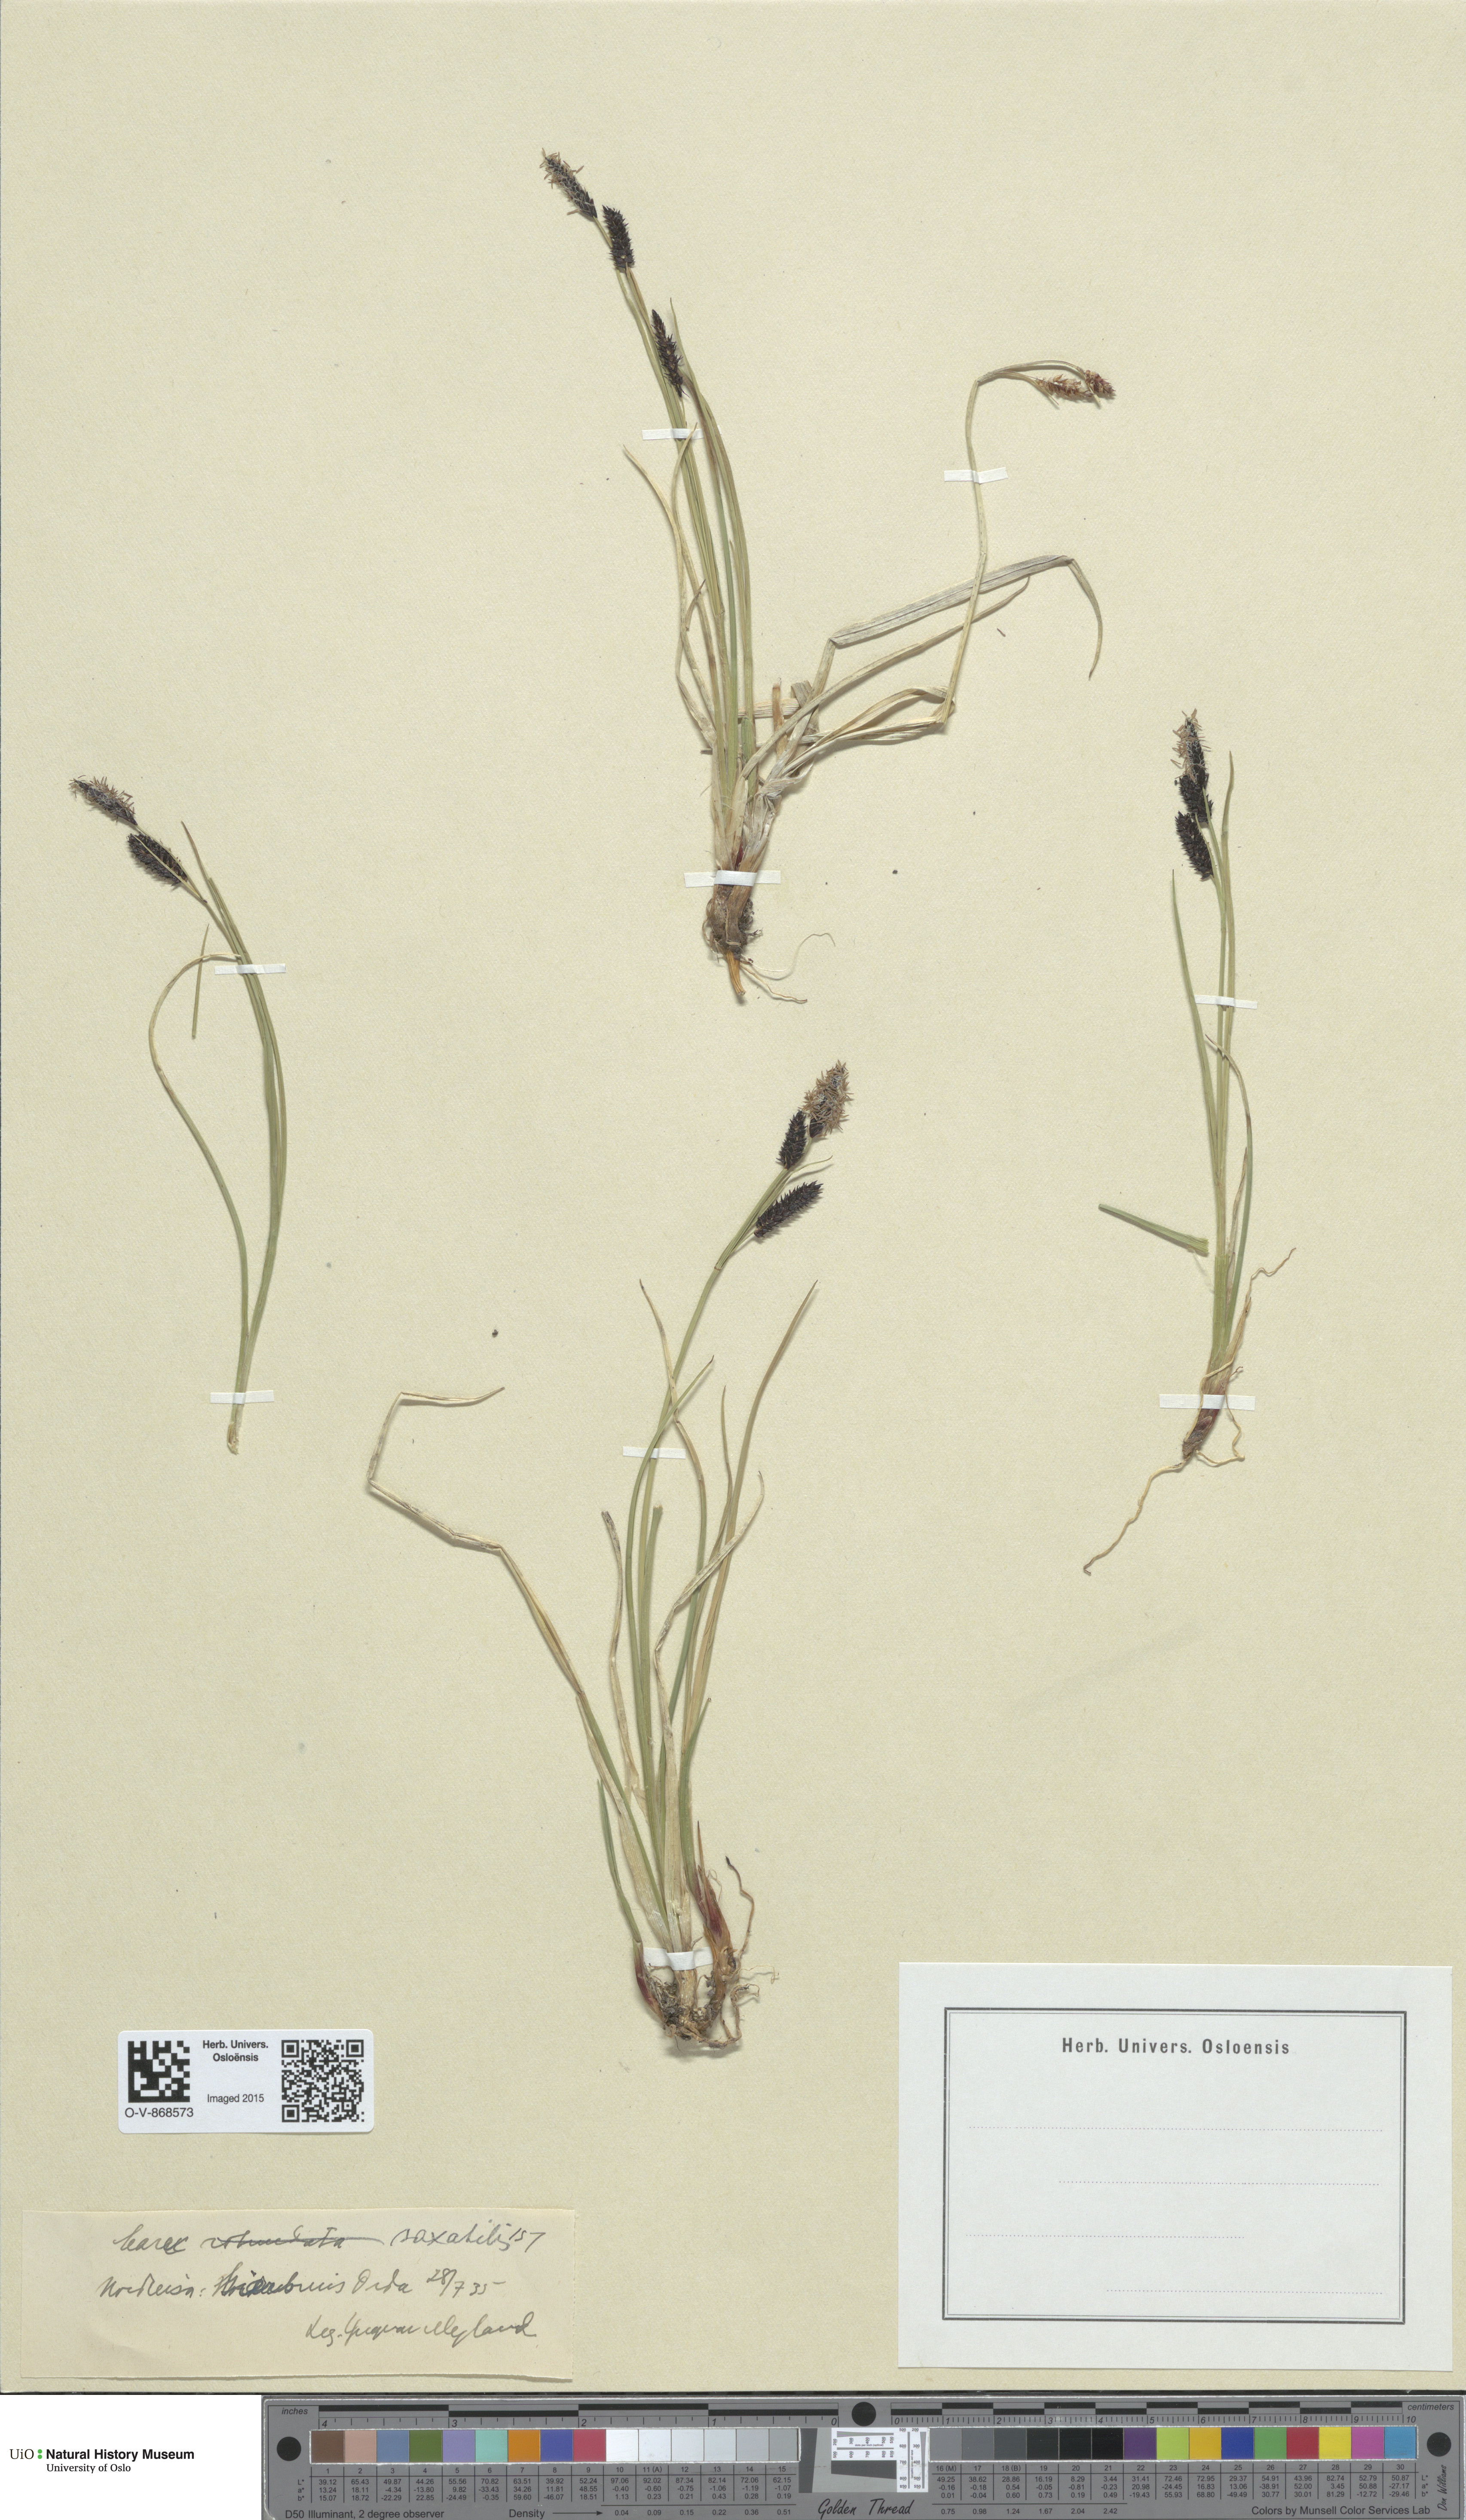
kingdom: Plantae
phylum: Tracheophyta
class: Liliopsida
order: Poales
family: Cyperaceae
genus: Carex
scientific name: Carex saxatilis
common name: Russet sedge
